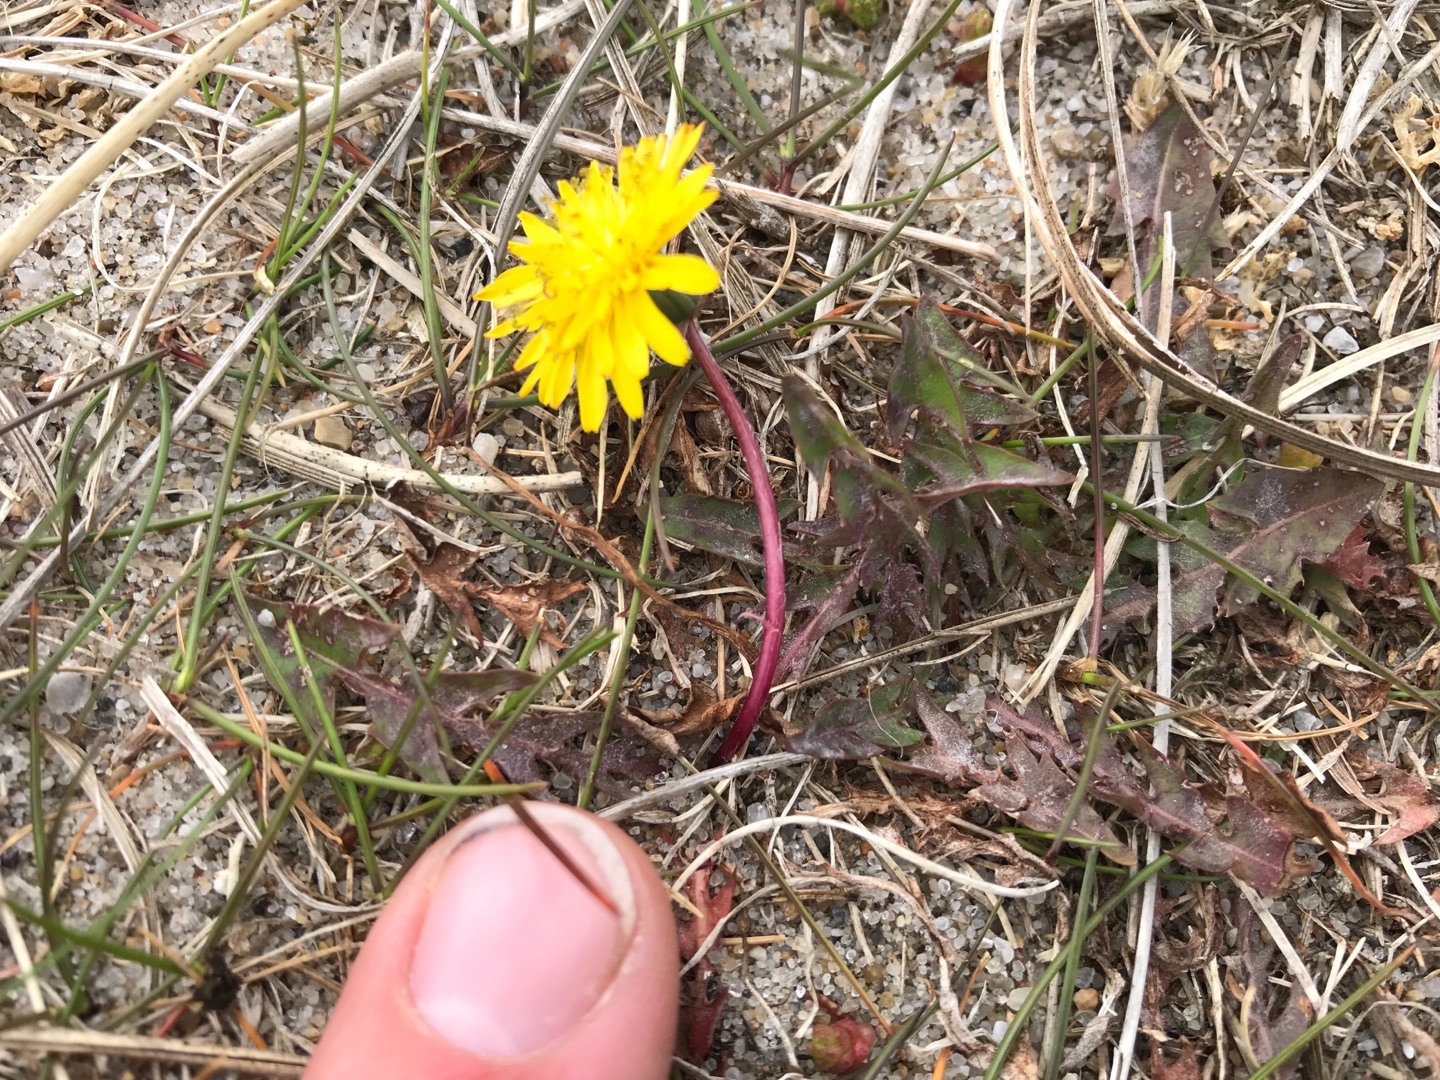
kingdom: Plantae
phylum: Tracheophyta
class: Magnoliopsida
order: Asterales
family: Asteraceae
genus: Taraxacum
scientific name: Taraxacum
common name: Mælkebøtteslægten
